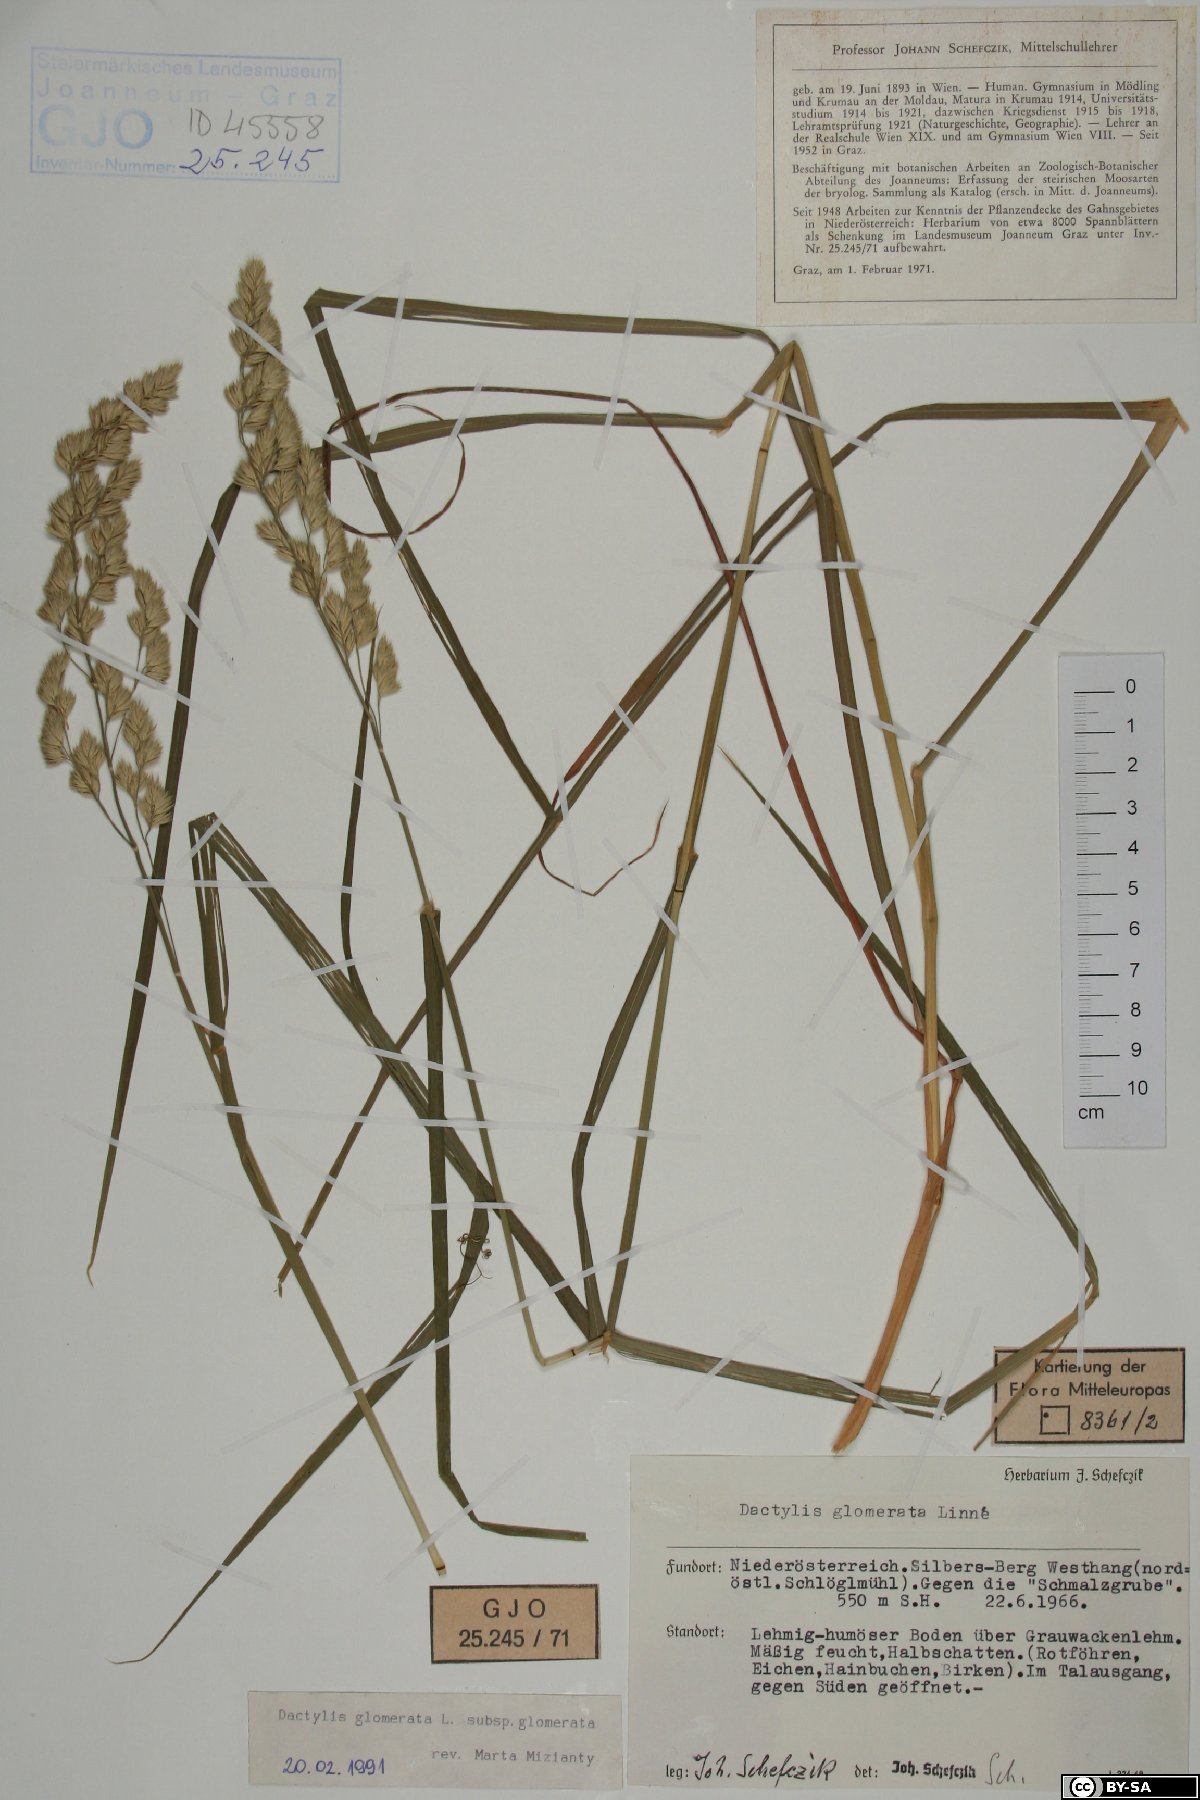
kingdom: Plantae
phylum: Tracheophyta
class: Liliopsida
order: Poales
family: Poaceae
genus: Dactylis
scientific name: Dactylis glomerata
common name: Orchardgrass
